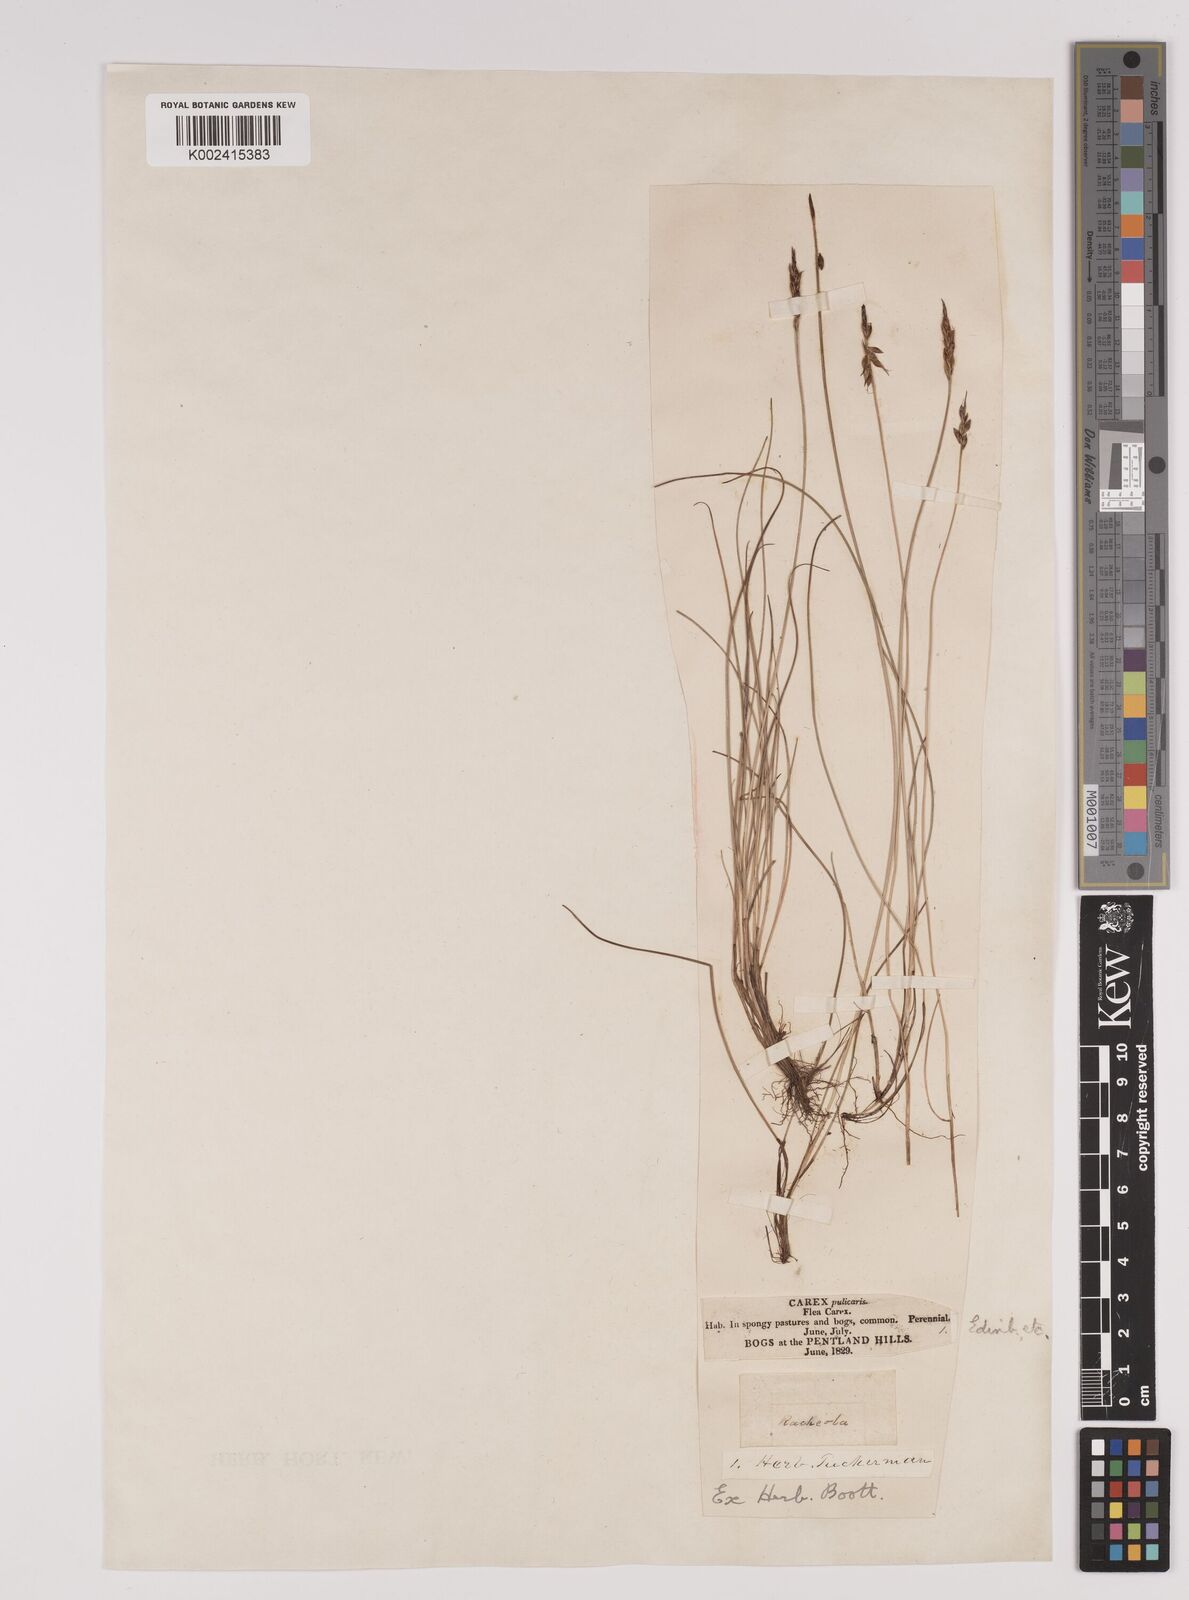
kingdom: Plantae
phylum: Tracheophyta
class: Liliopsida
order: Poales
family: Cyperaceae
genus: Carex
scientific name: Carex pulicaris
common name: Flea sedge
